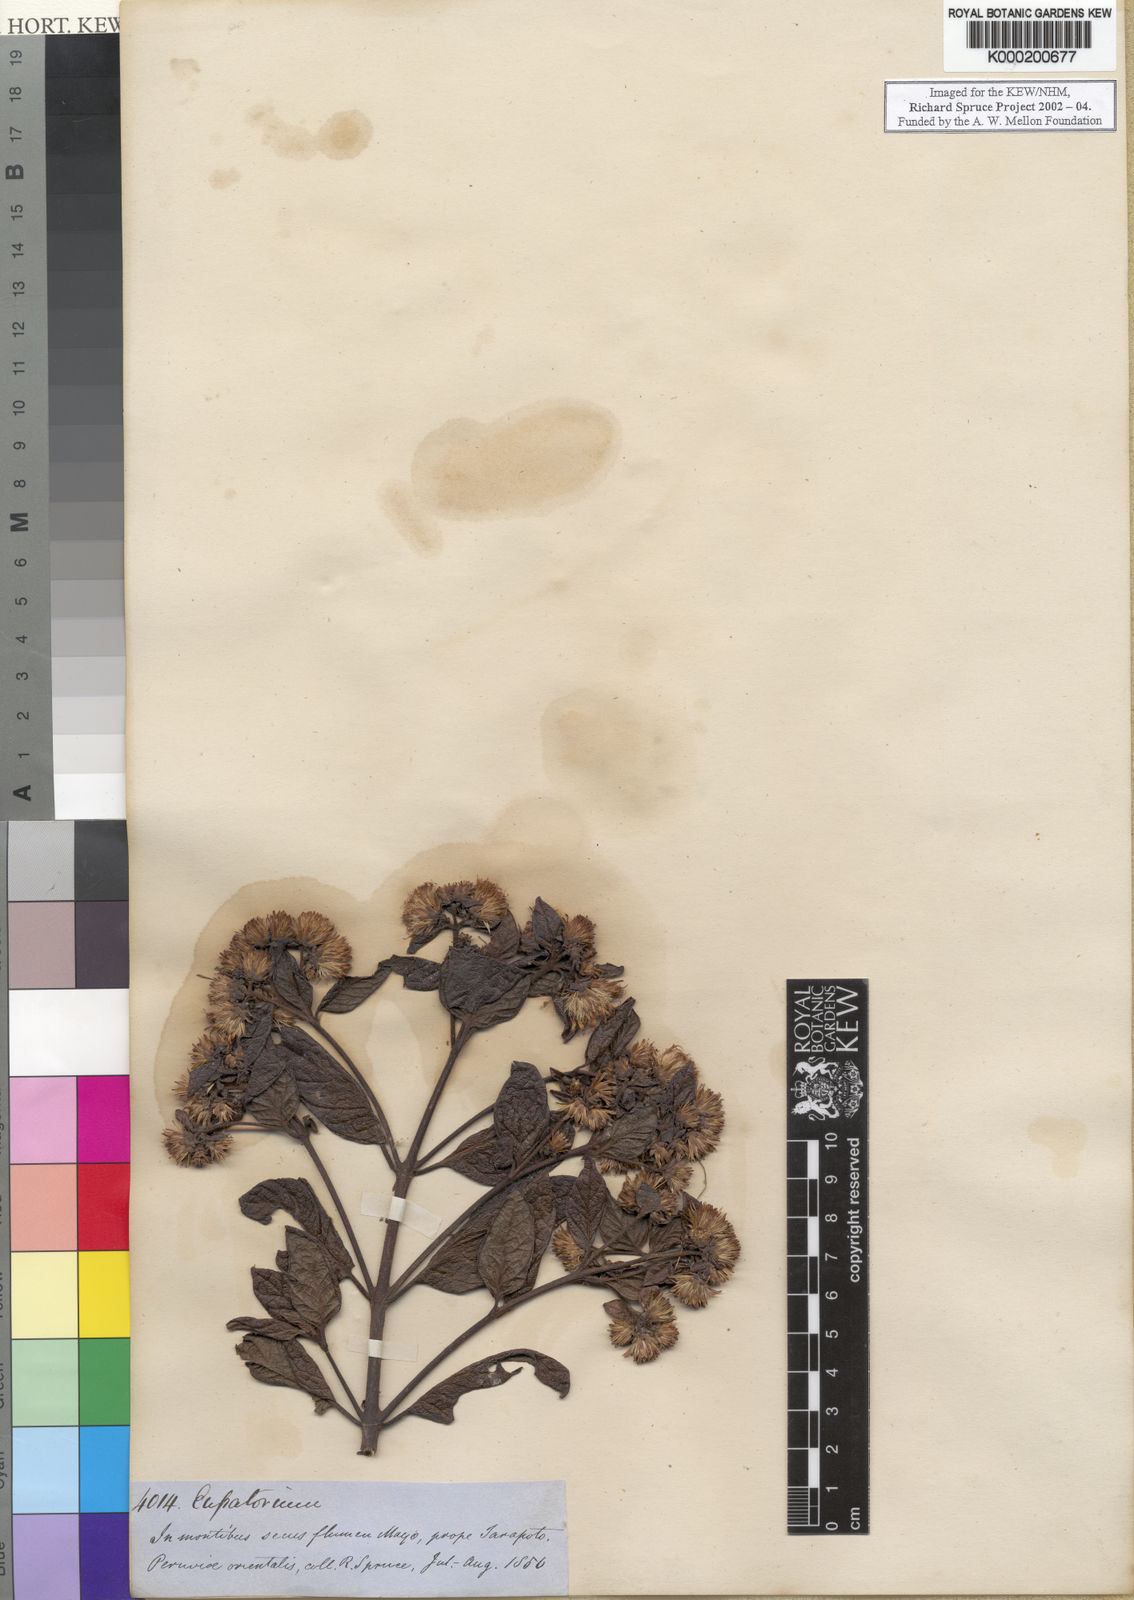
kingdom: Plantae
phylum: Tracheophyta
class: Magnoliopsida
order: Asterales
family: Asteraceae
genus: Eupatorium
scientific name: Eupatorium
